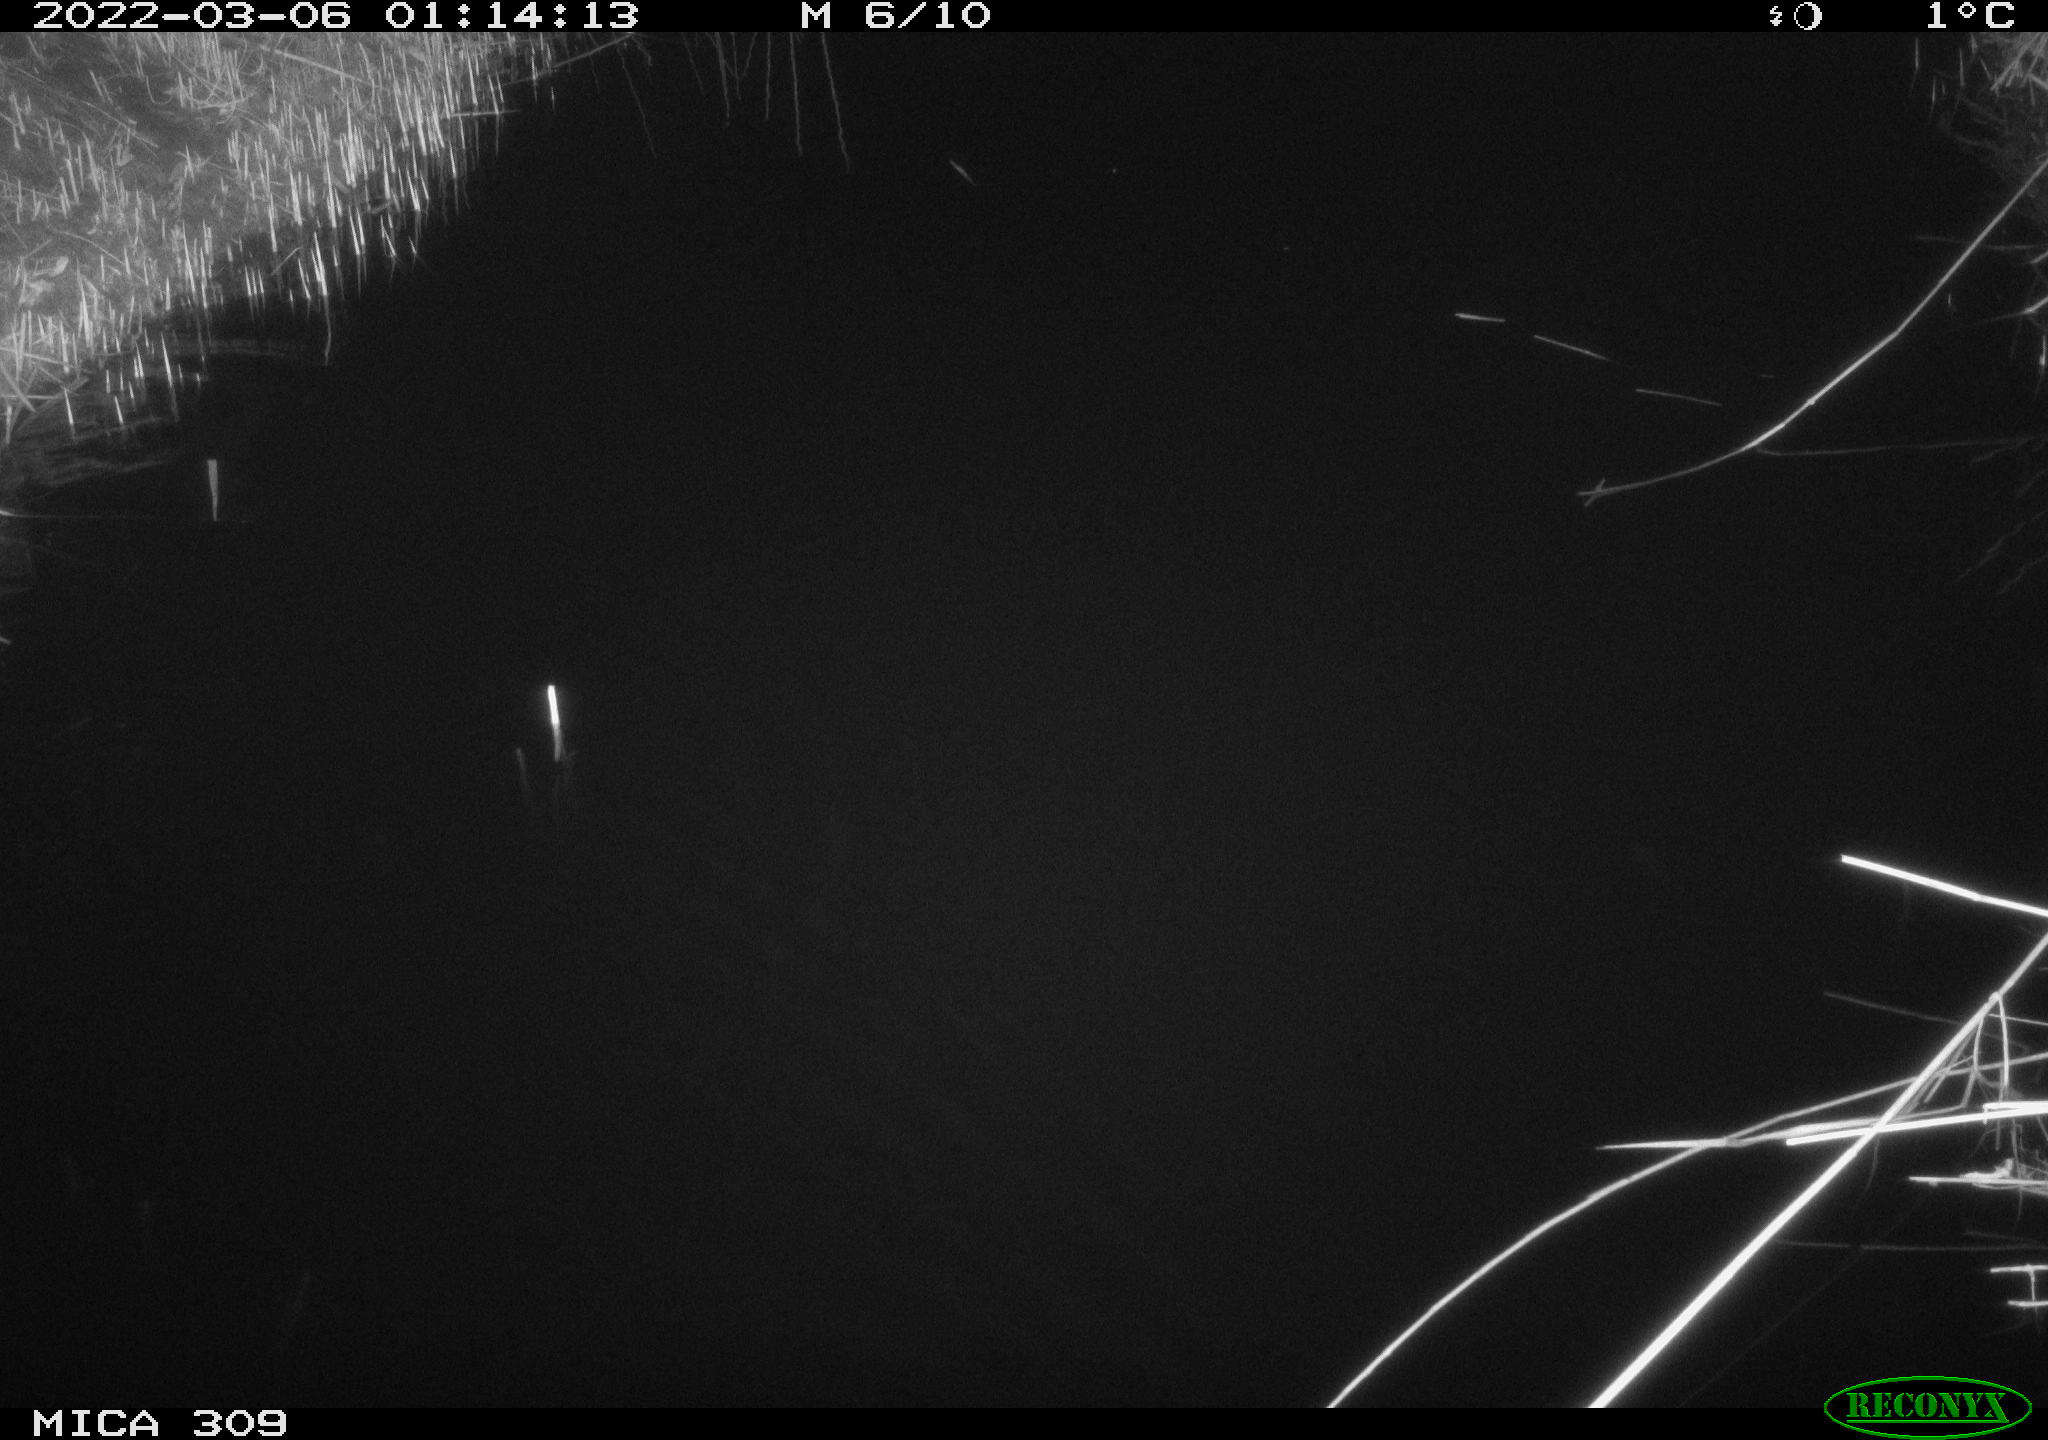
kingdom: Animalia
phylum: Chordata
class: Mammalia
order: Rodentia
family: Muridae
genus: Rattus
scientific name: Rattus norvegicus
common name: Brown rat
